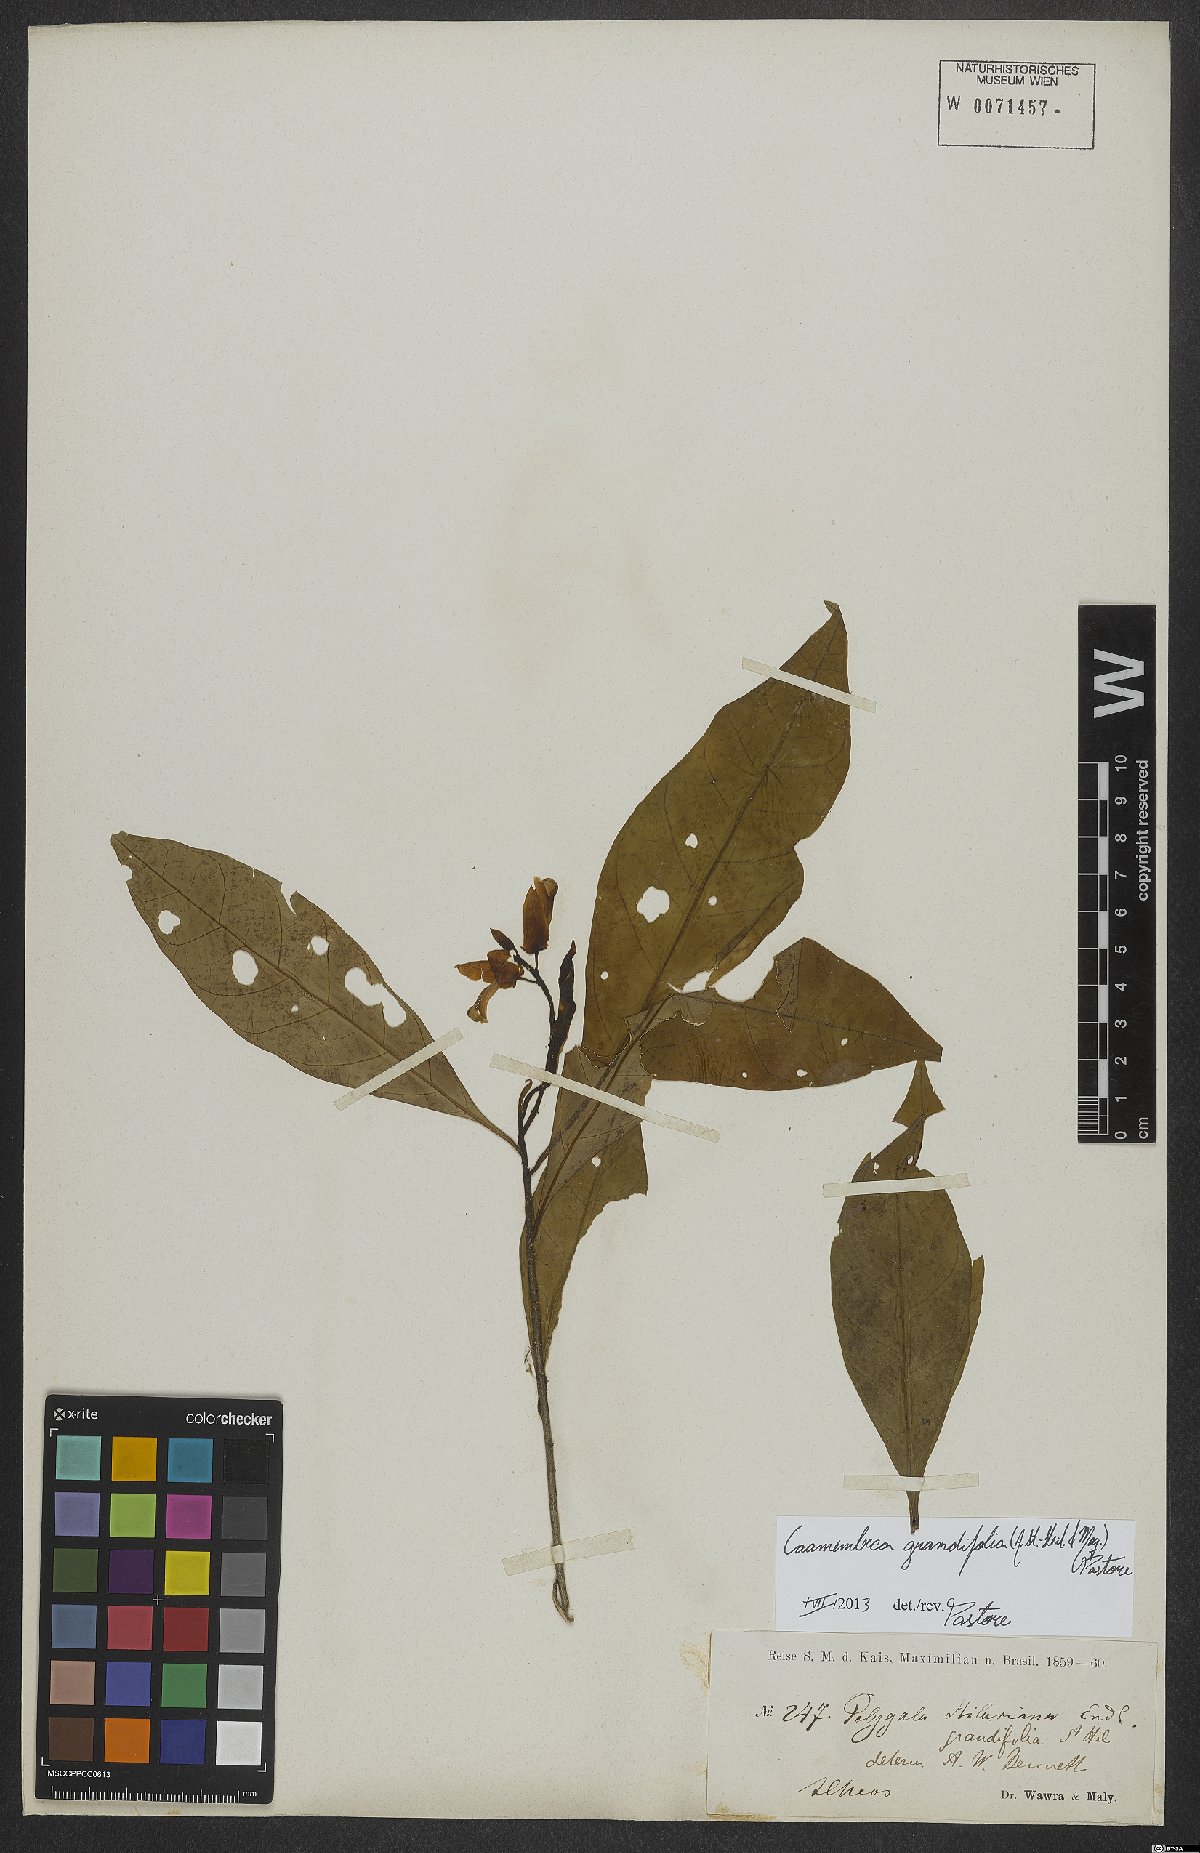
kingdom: Plantae
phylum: Tracheophyta
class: Magnoliopsida
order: Fabales
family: Polygalaceae
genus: Caamembeca
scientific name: Caamembeca grandifolia
